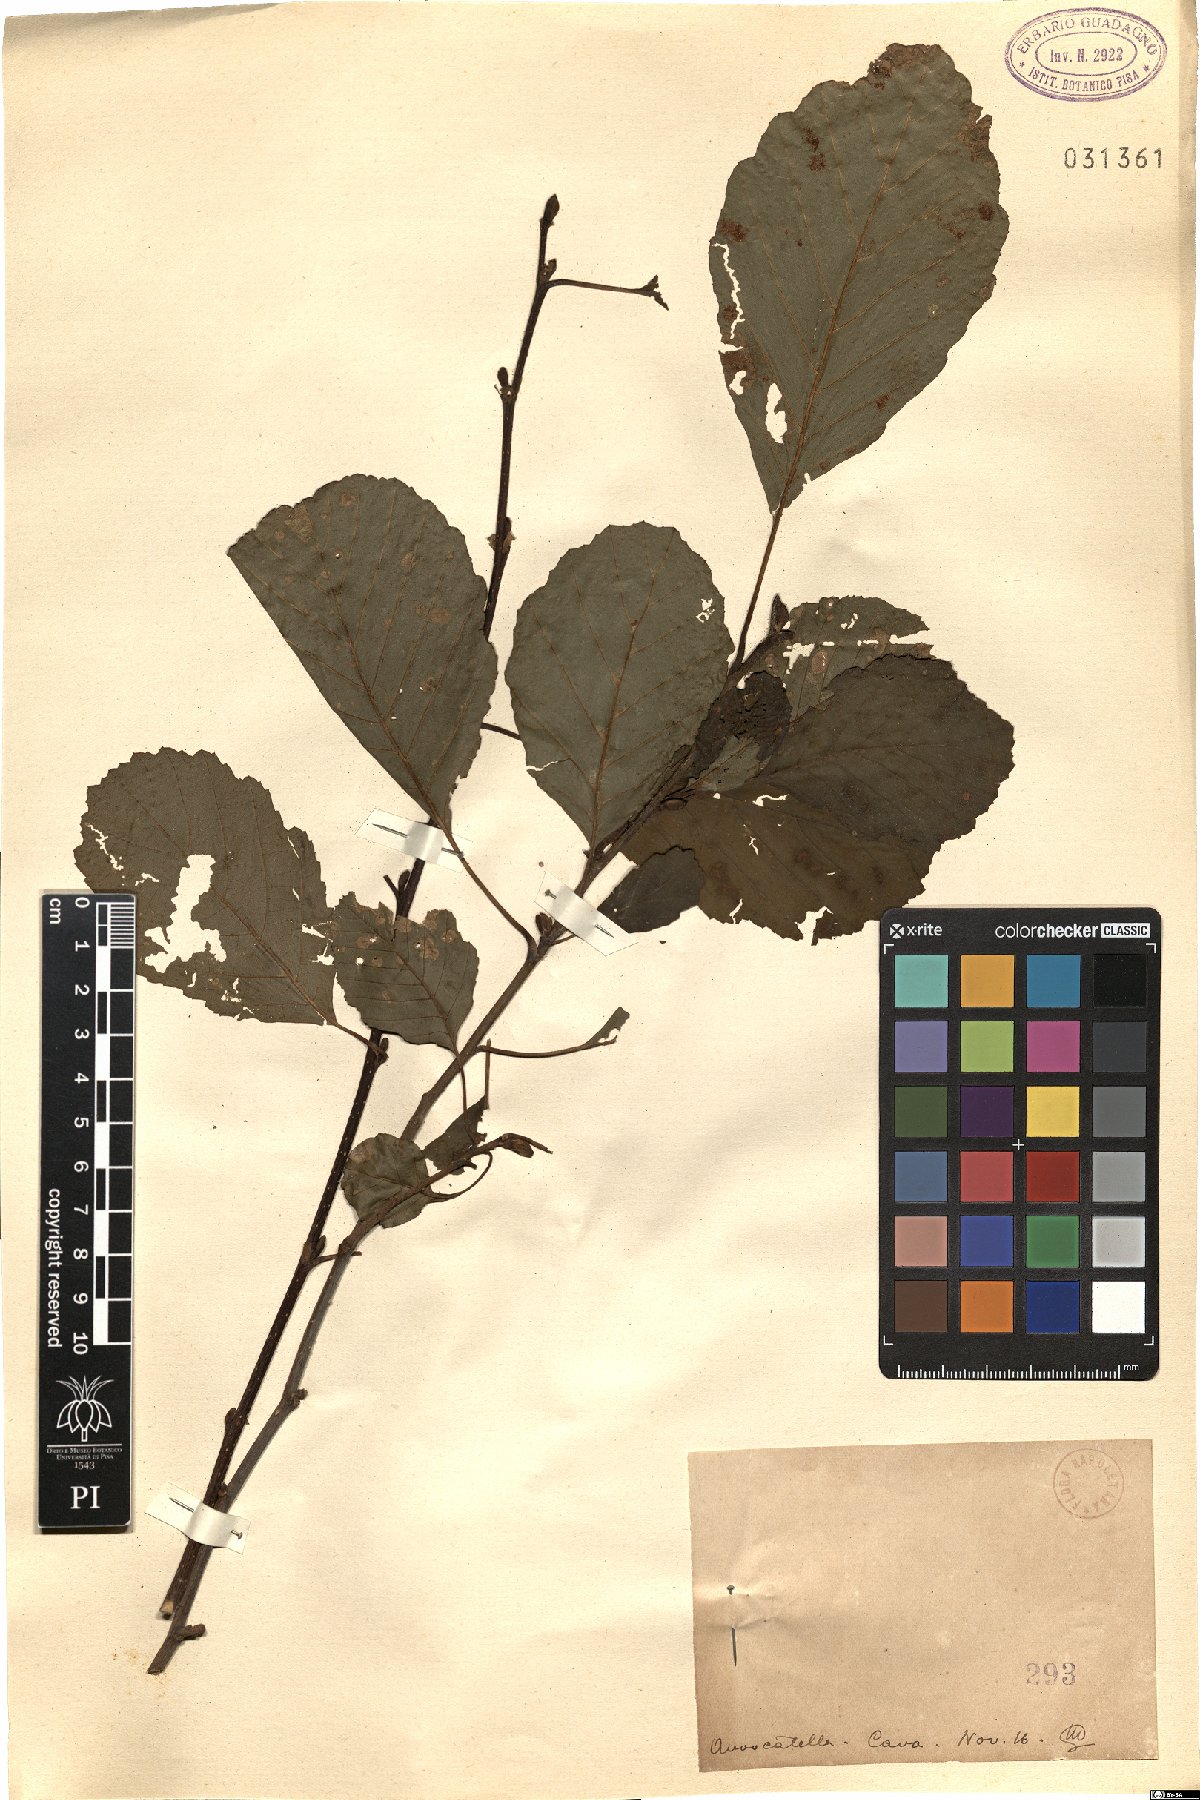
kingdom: Plantae
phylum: Tracheophyta
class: Magnoliopsida
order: Fagales
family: Betulaceae
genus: Alnus
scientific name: Alnus
